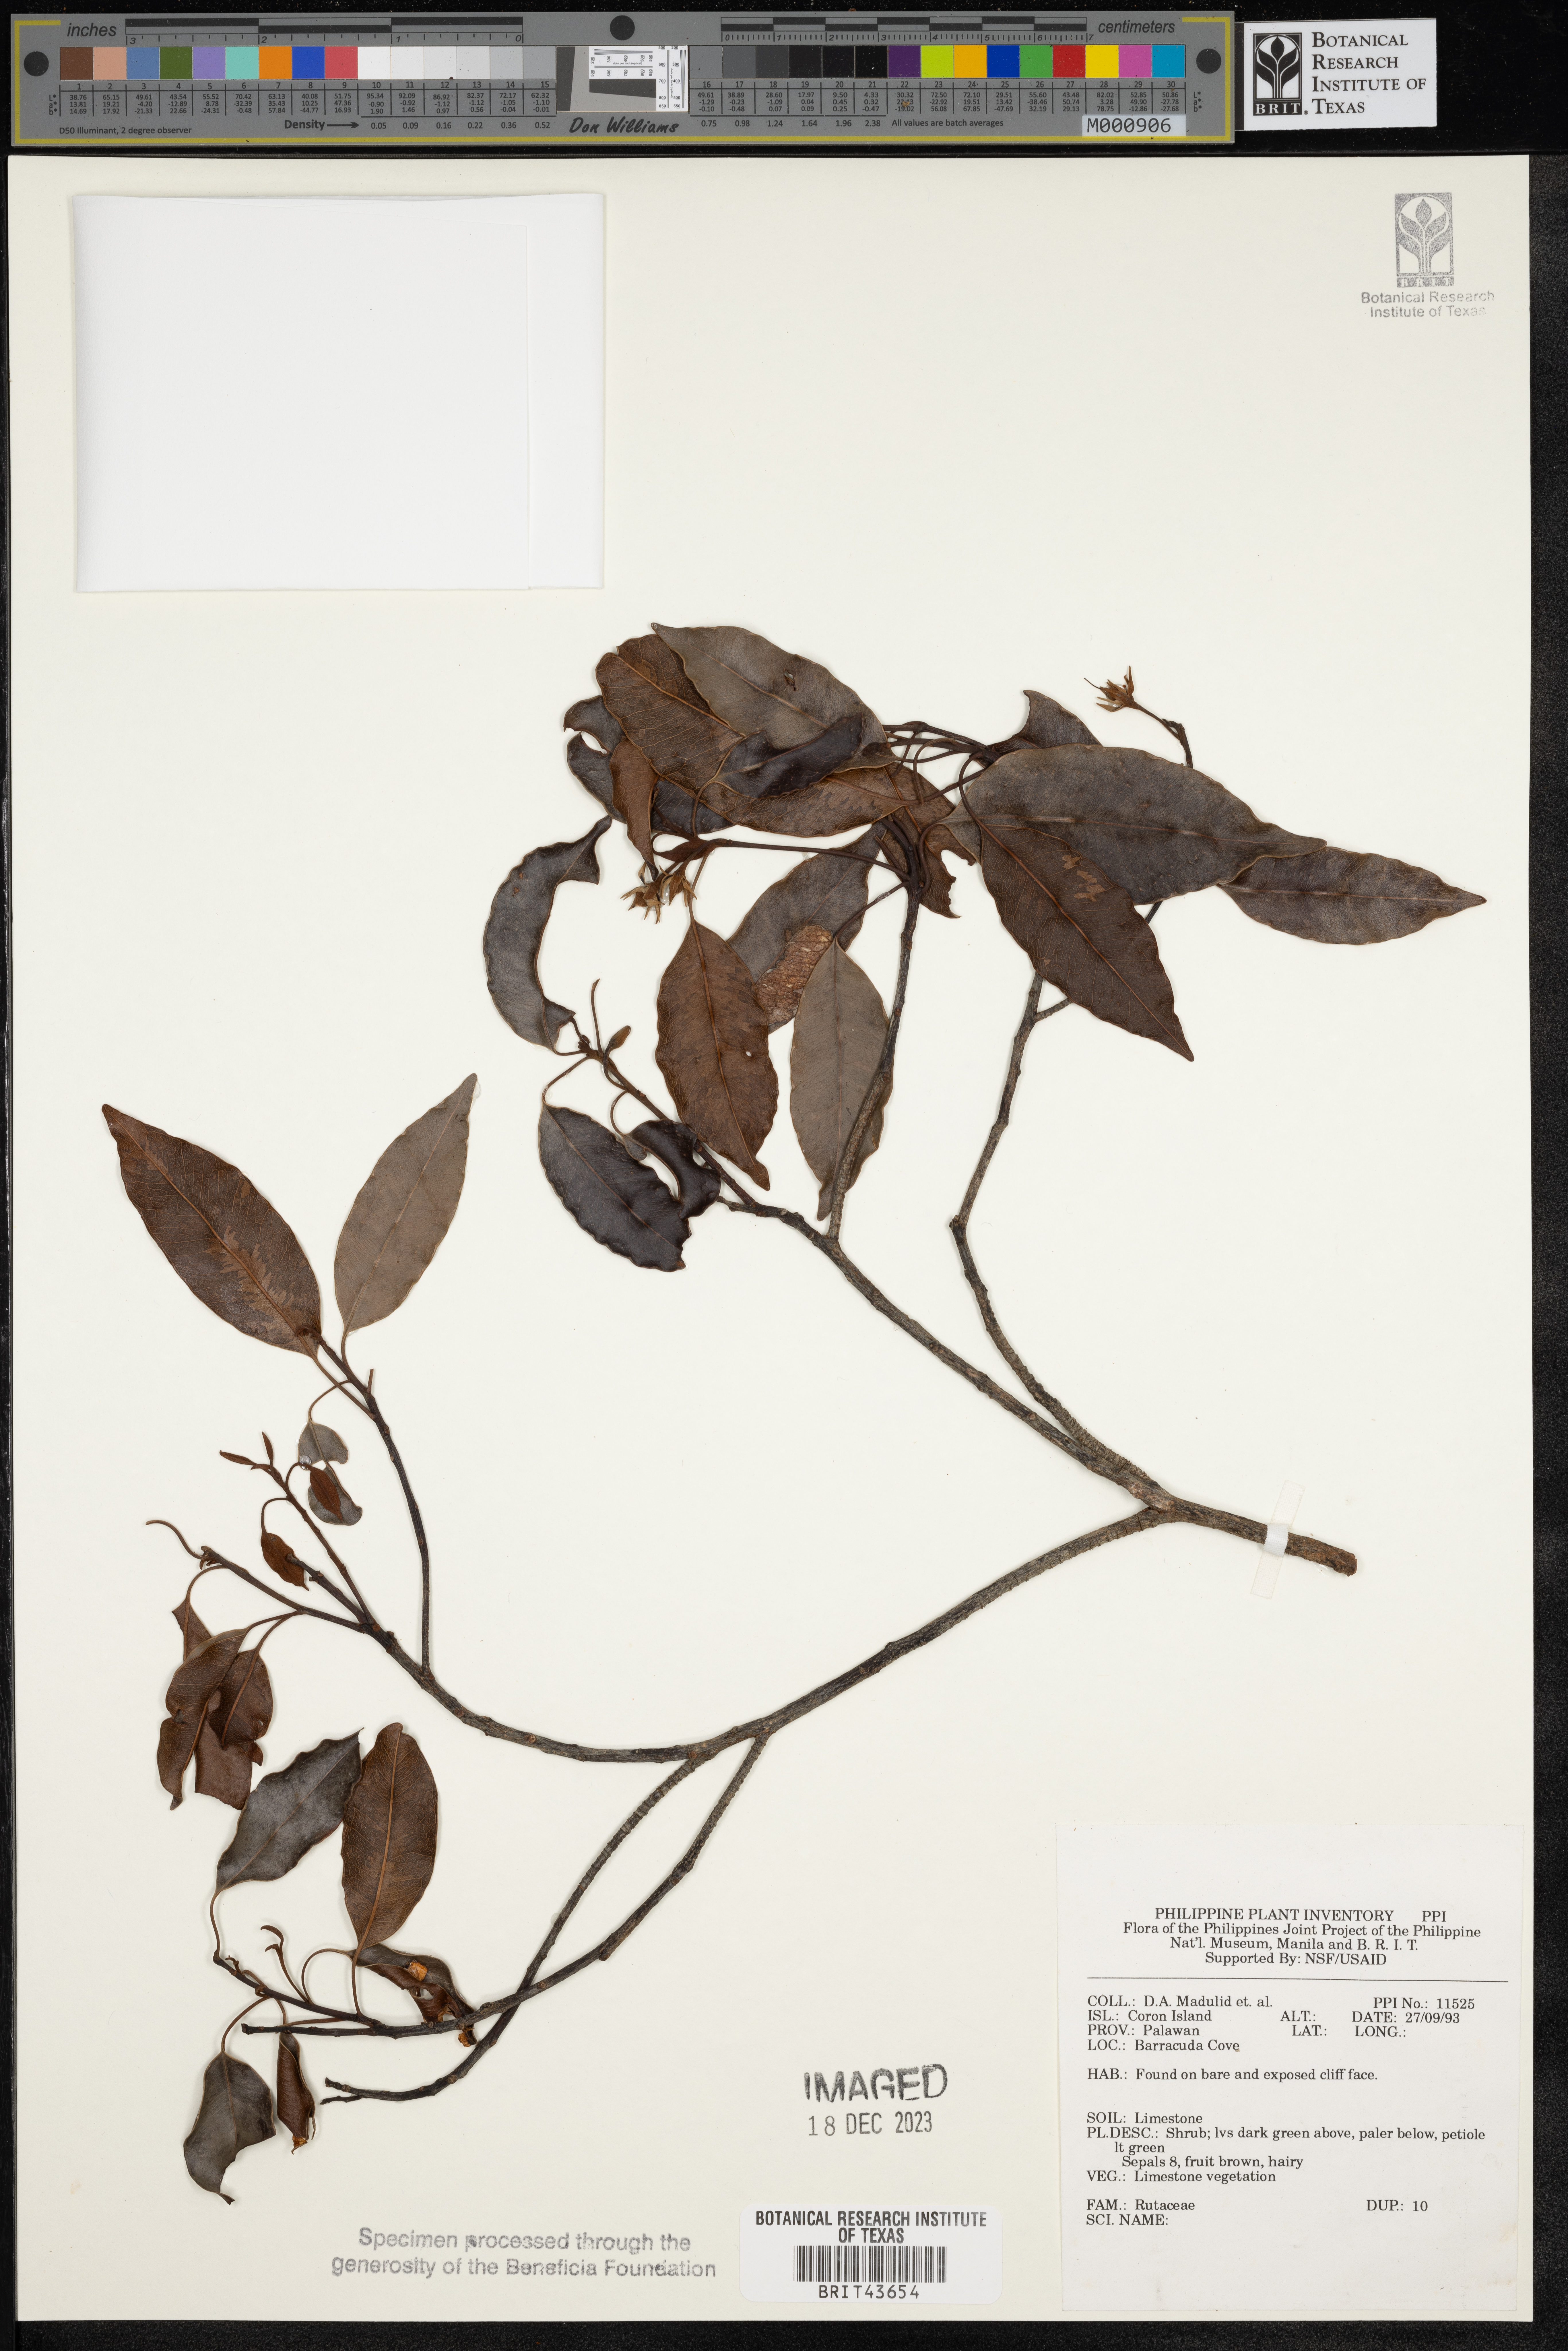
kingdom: Plantae
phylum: Tracheophyta
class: Magnoliopsida
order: Sapindales
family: Rutaceae
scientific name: Rutaceae
